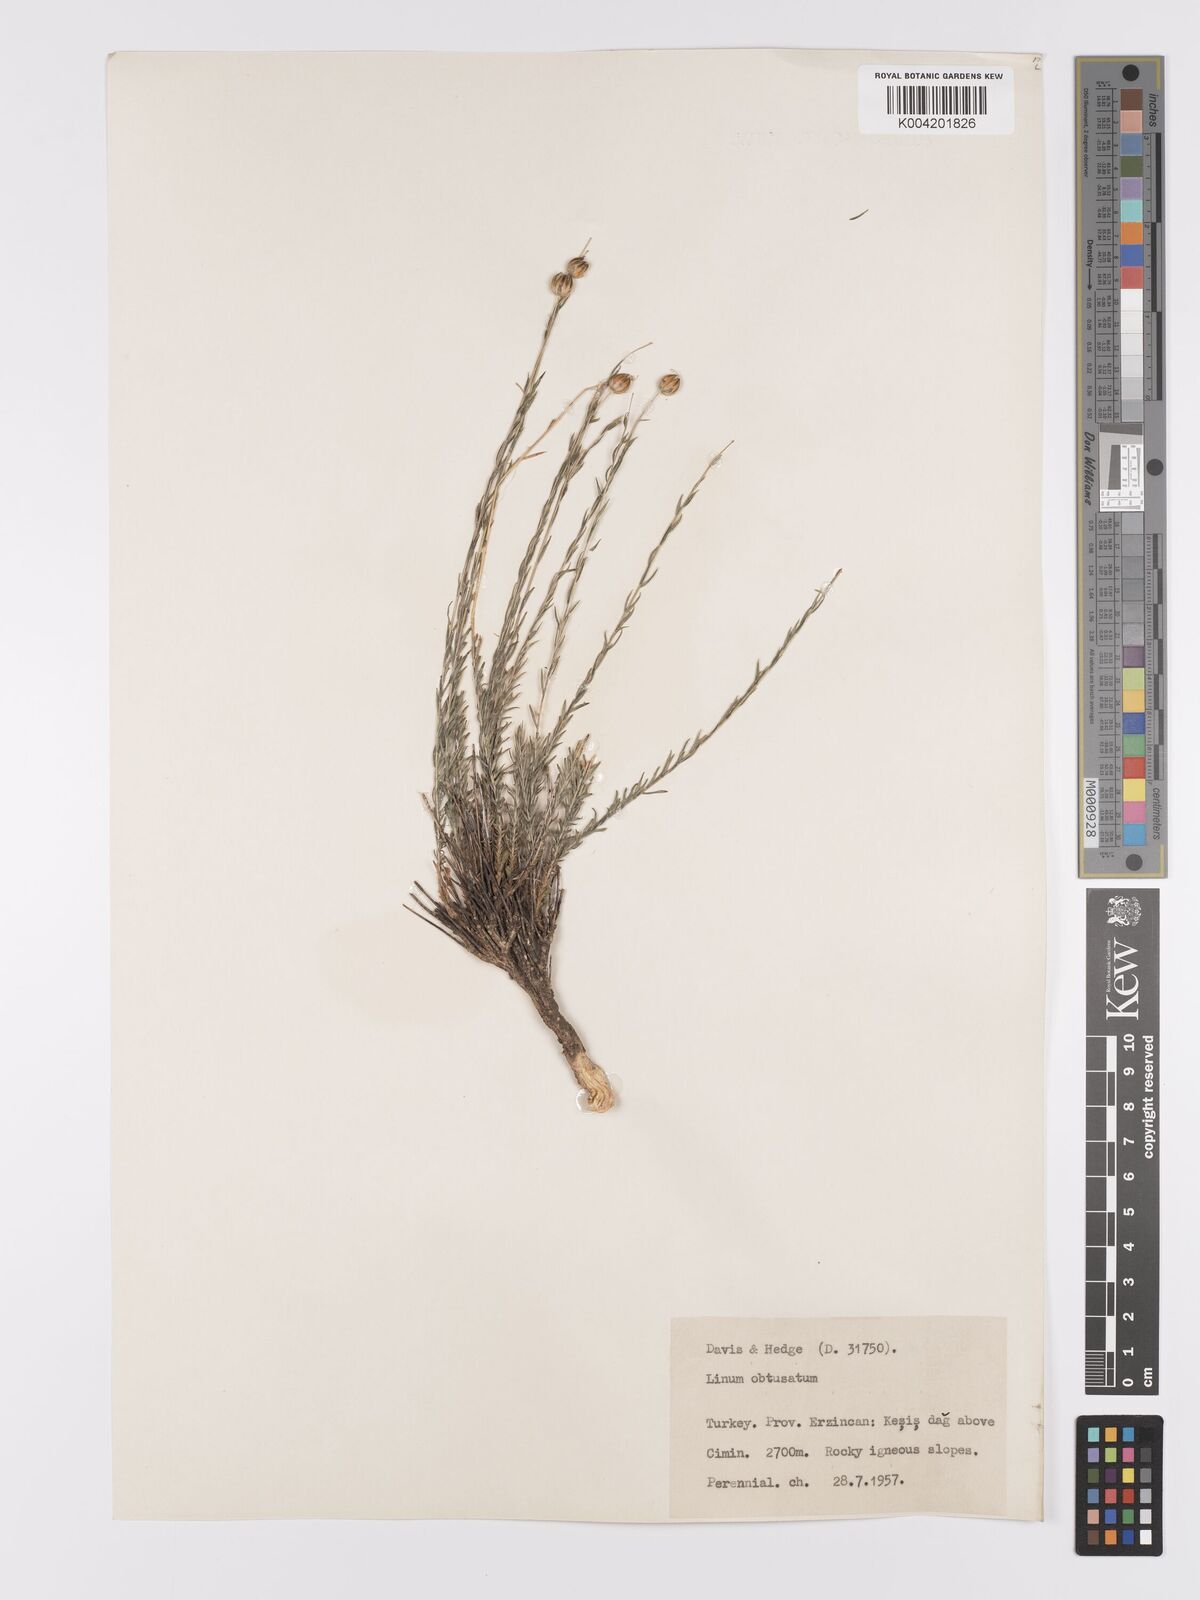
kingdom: Plantae
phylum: Tracheophyta
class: Magnoliopsida
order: Malpighiales
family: Linaceae
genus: Linum
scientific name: Linum obtusatum
